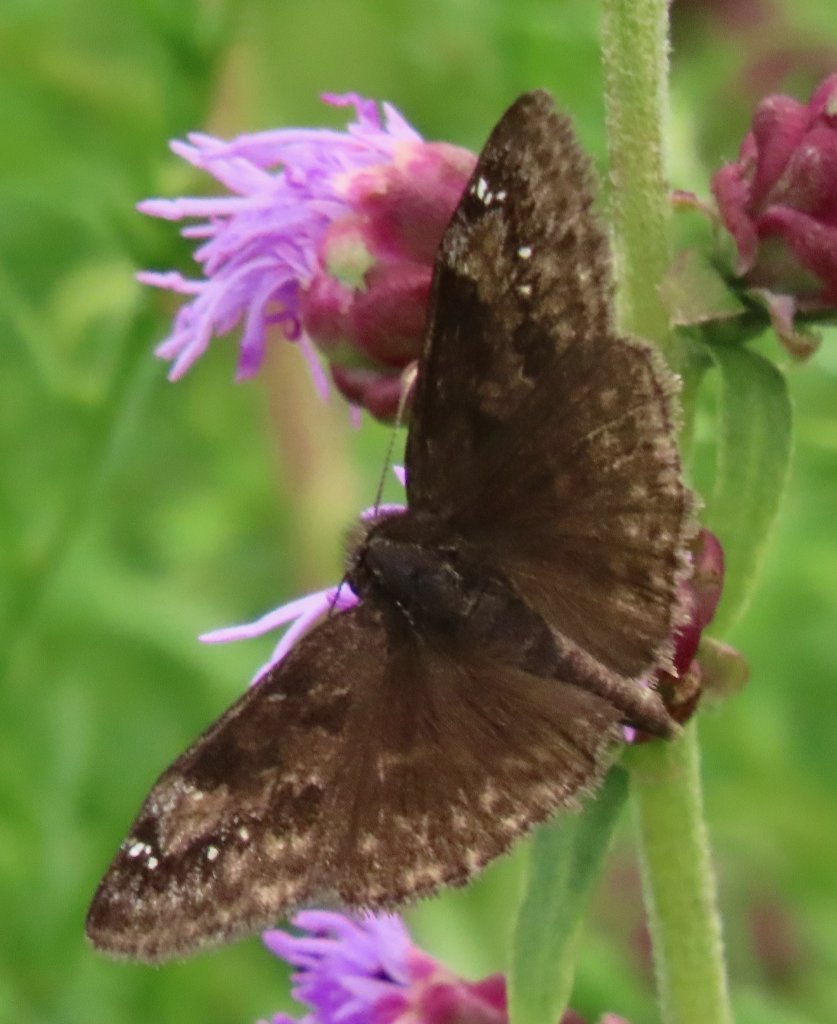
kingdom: Animalia
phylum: Arthropoda
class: Insecta
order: Lepidoptera
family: Hesperiidae
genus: Gesta
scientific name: Gesta
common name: Wild Indigo Duskywing
